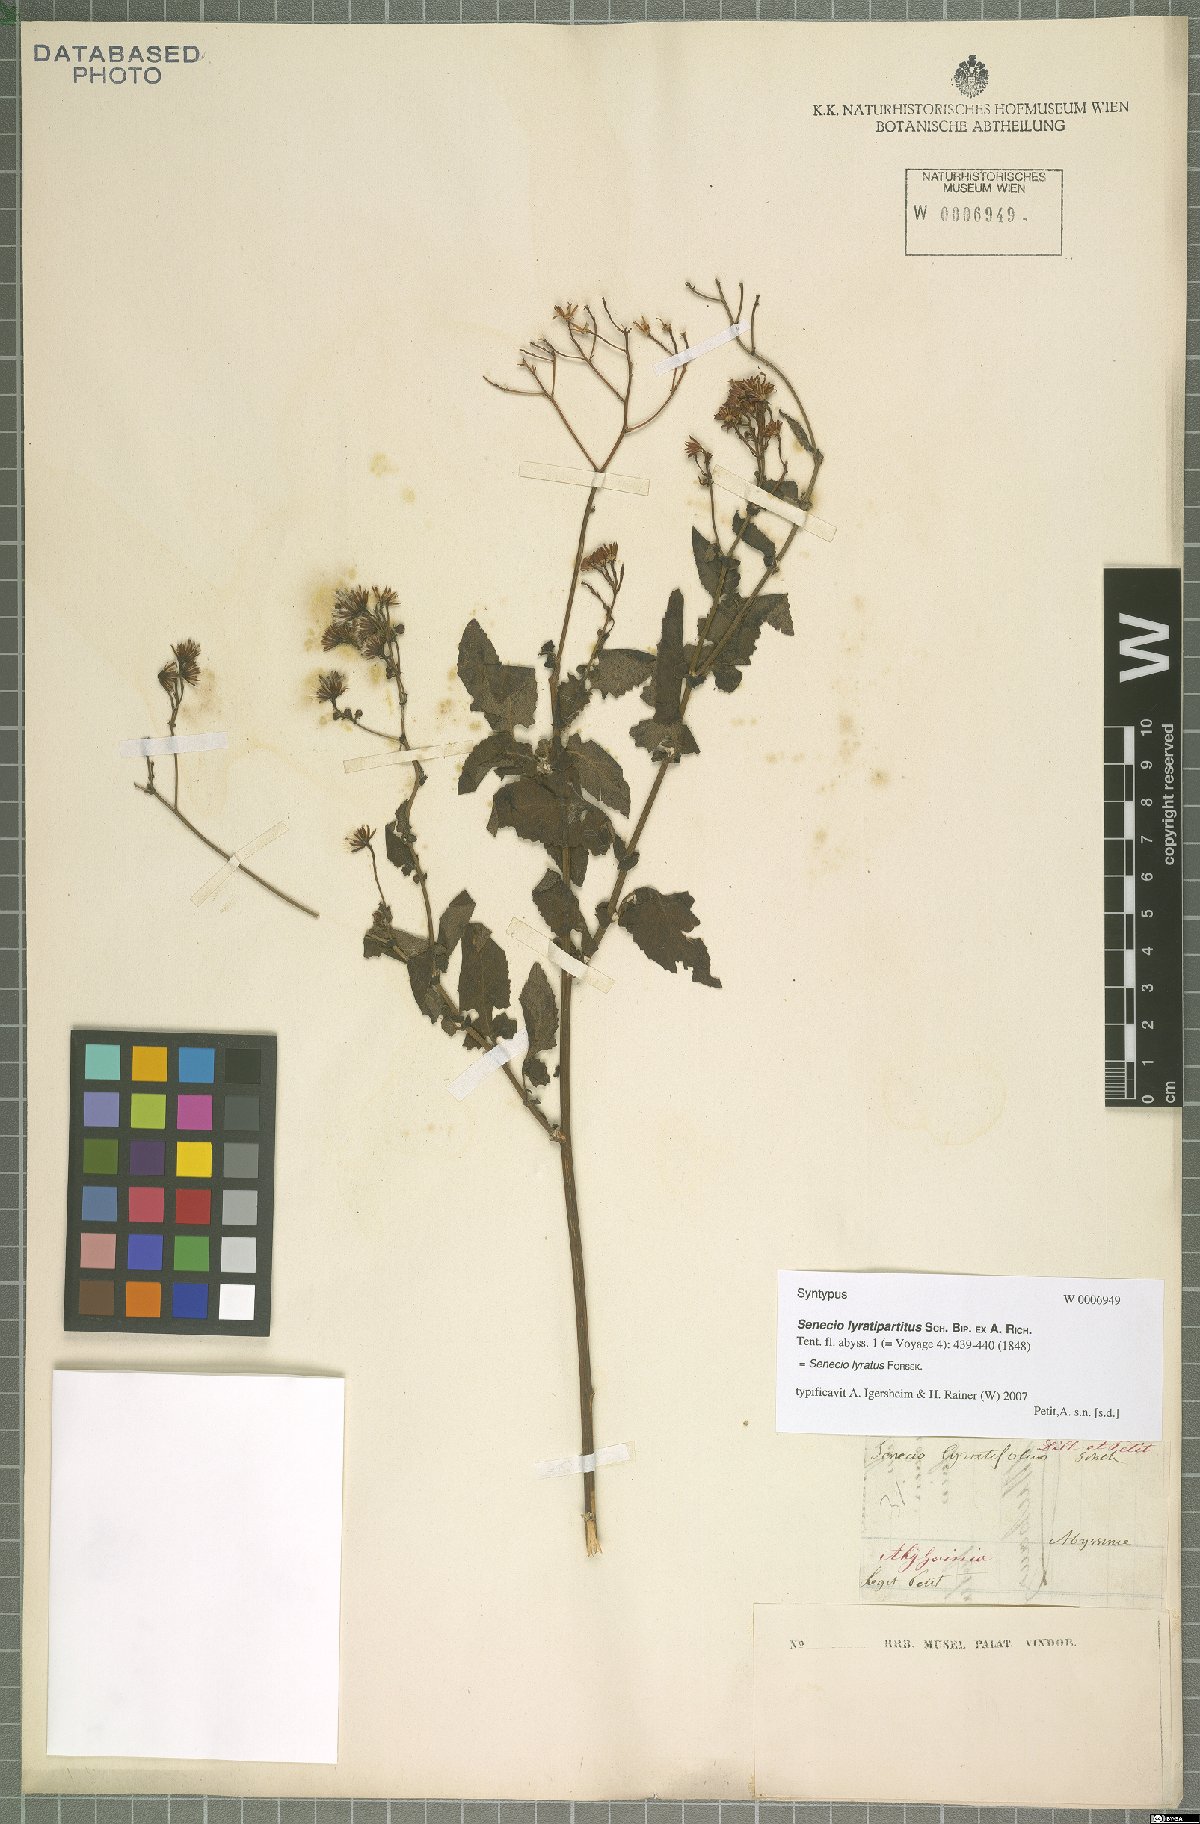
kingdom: Plantae
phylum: Tracheophyta
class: Magnoliopsida
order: Asterales
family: Asteraceae
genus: Senecio
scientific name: Senecio lyratus
